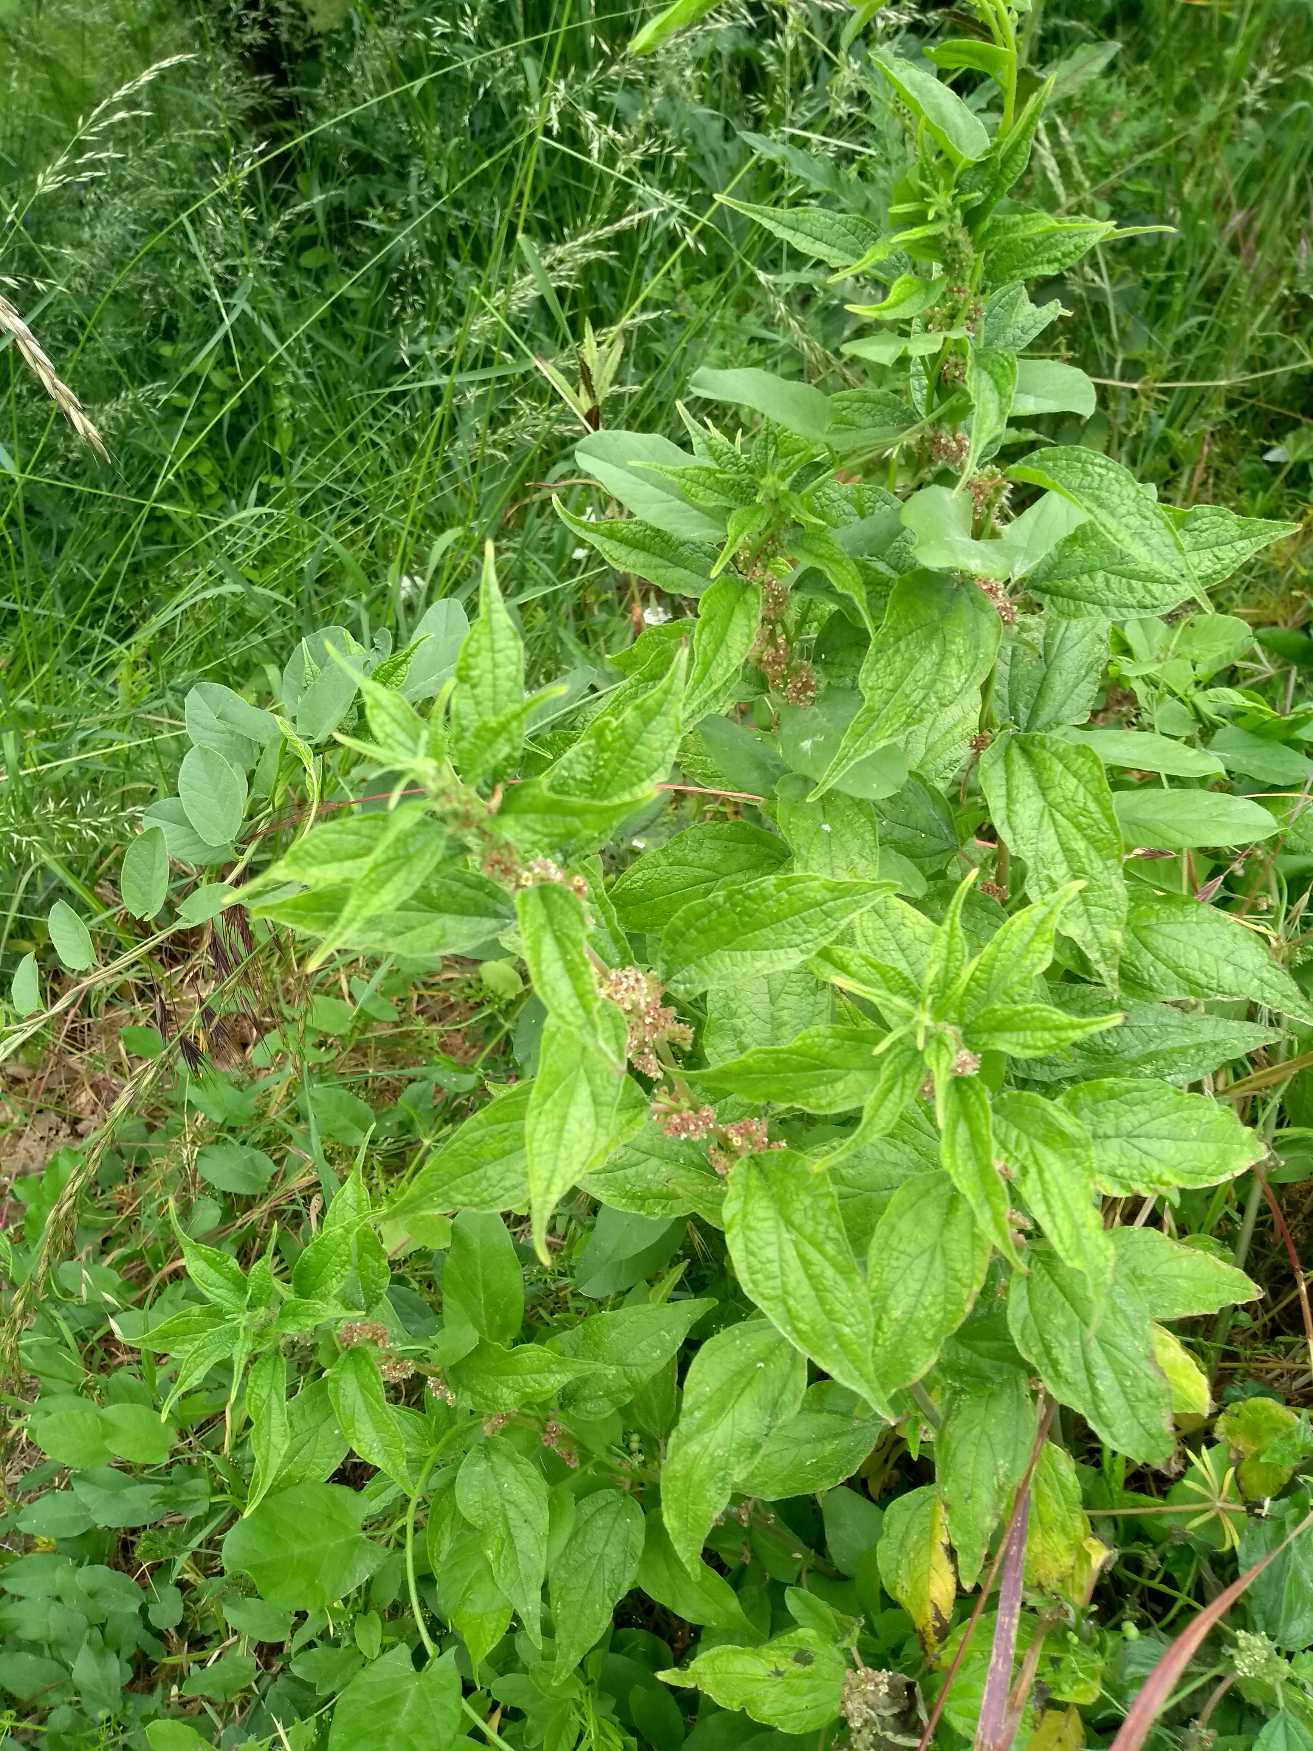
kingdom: Plantae
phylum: Tracheophyta
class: Magnoliopsida
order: Rosales
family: Urticaceae
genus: Parietaria
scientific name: Parietaria officinalis
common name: Almindelig springknap
